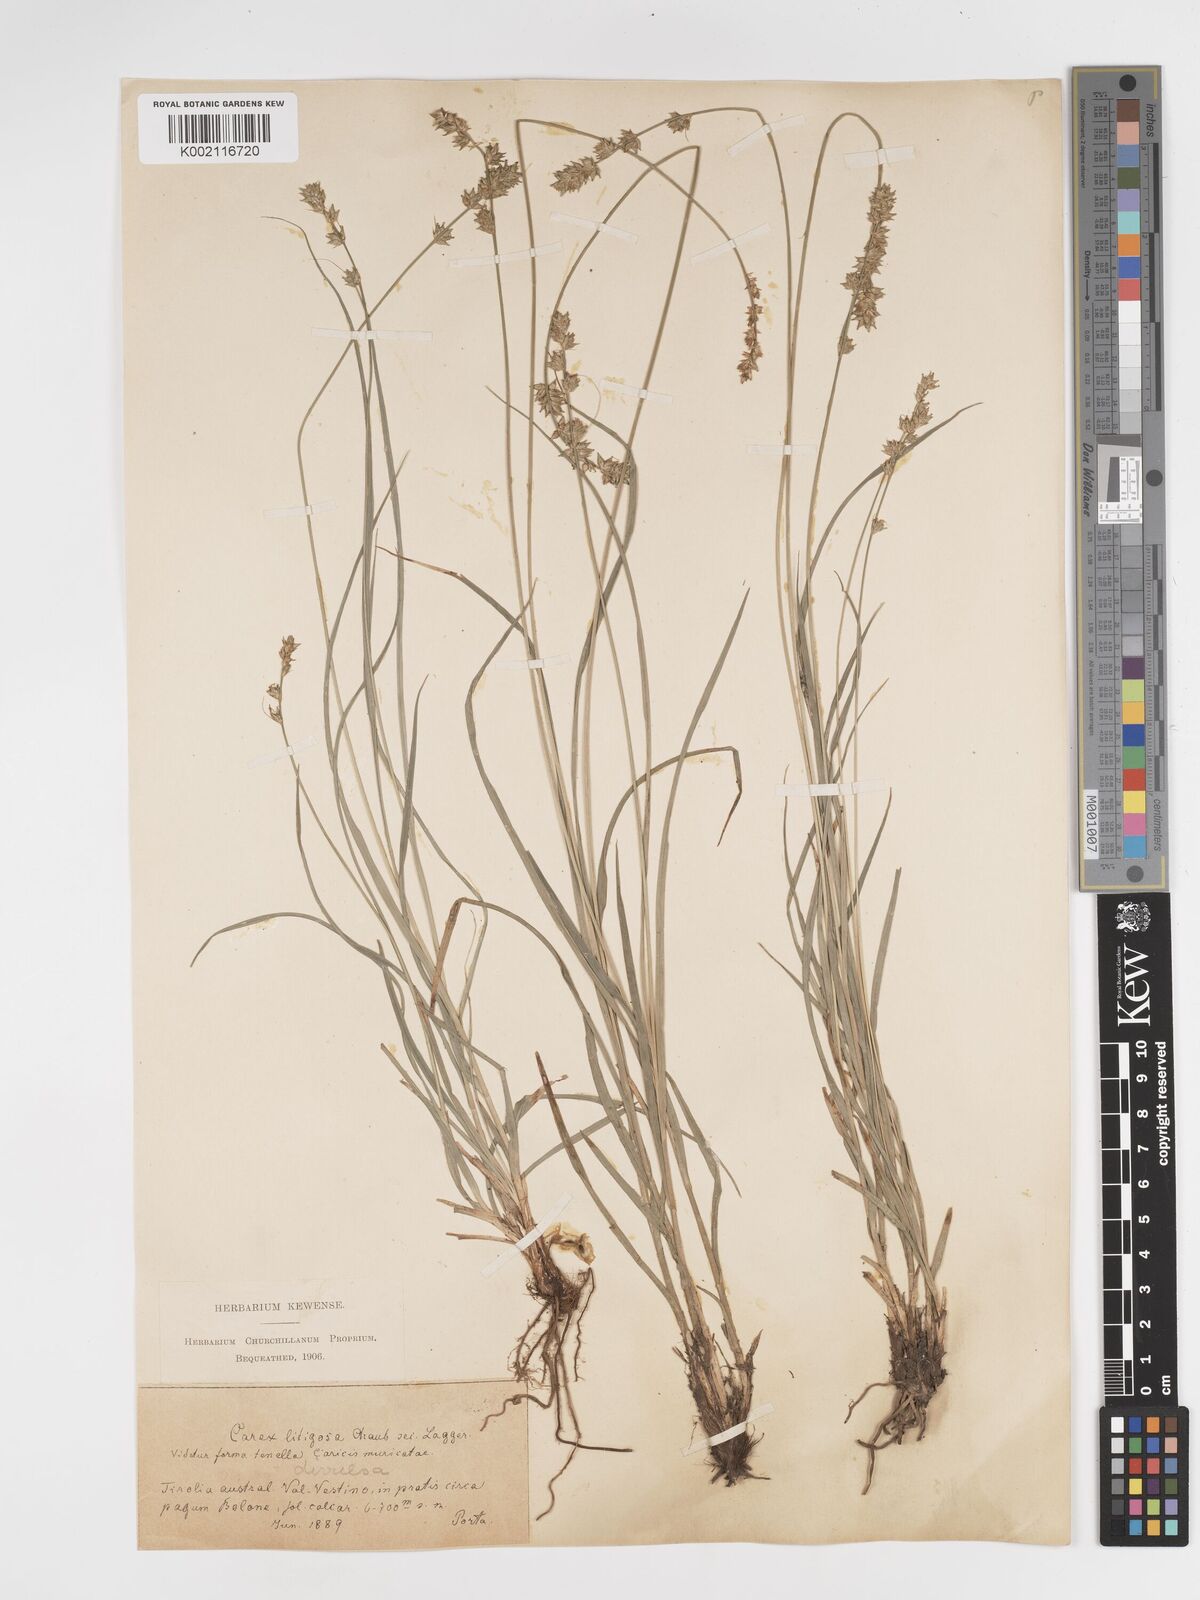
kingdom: Plantae
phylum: Tracheophyta
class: Liliopsida
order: Poales
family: Cyperaceae
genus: Carex
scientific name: Carex divulsa
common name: Grassland sedge
